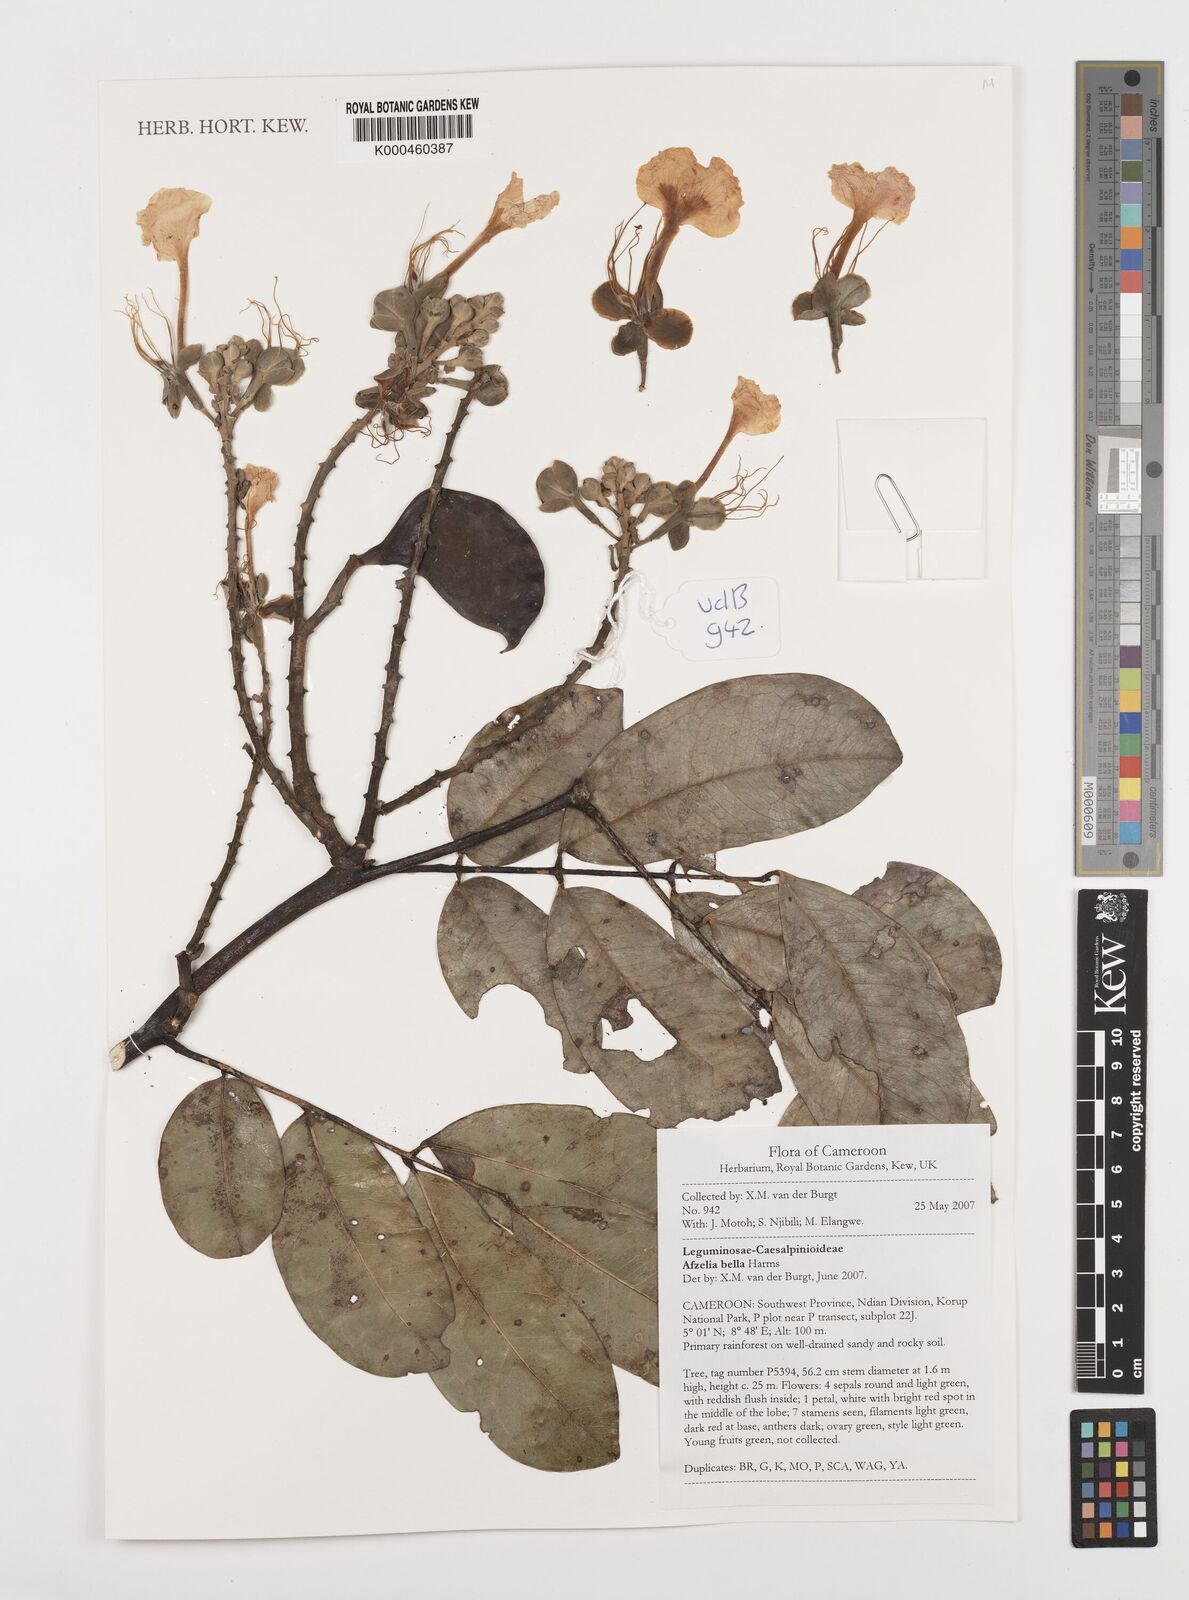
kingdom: Plantae
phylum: Tracheophyta
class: Magnoliopsida
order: Fabales
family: Fabaceae
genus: Afzelia
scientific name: Afzelia bella
